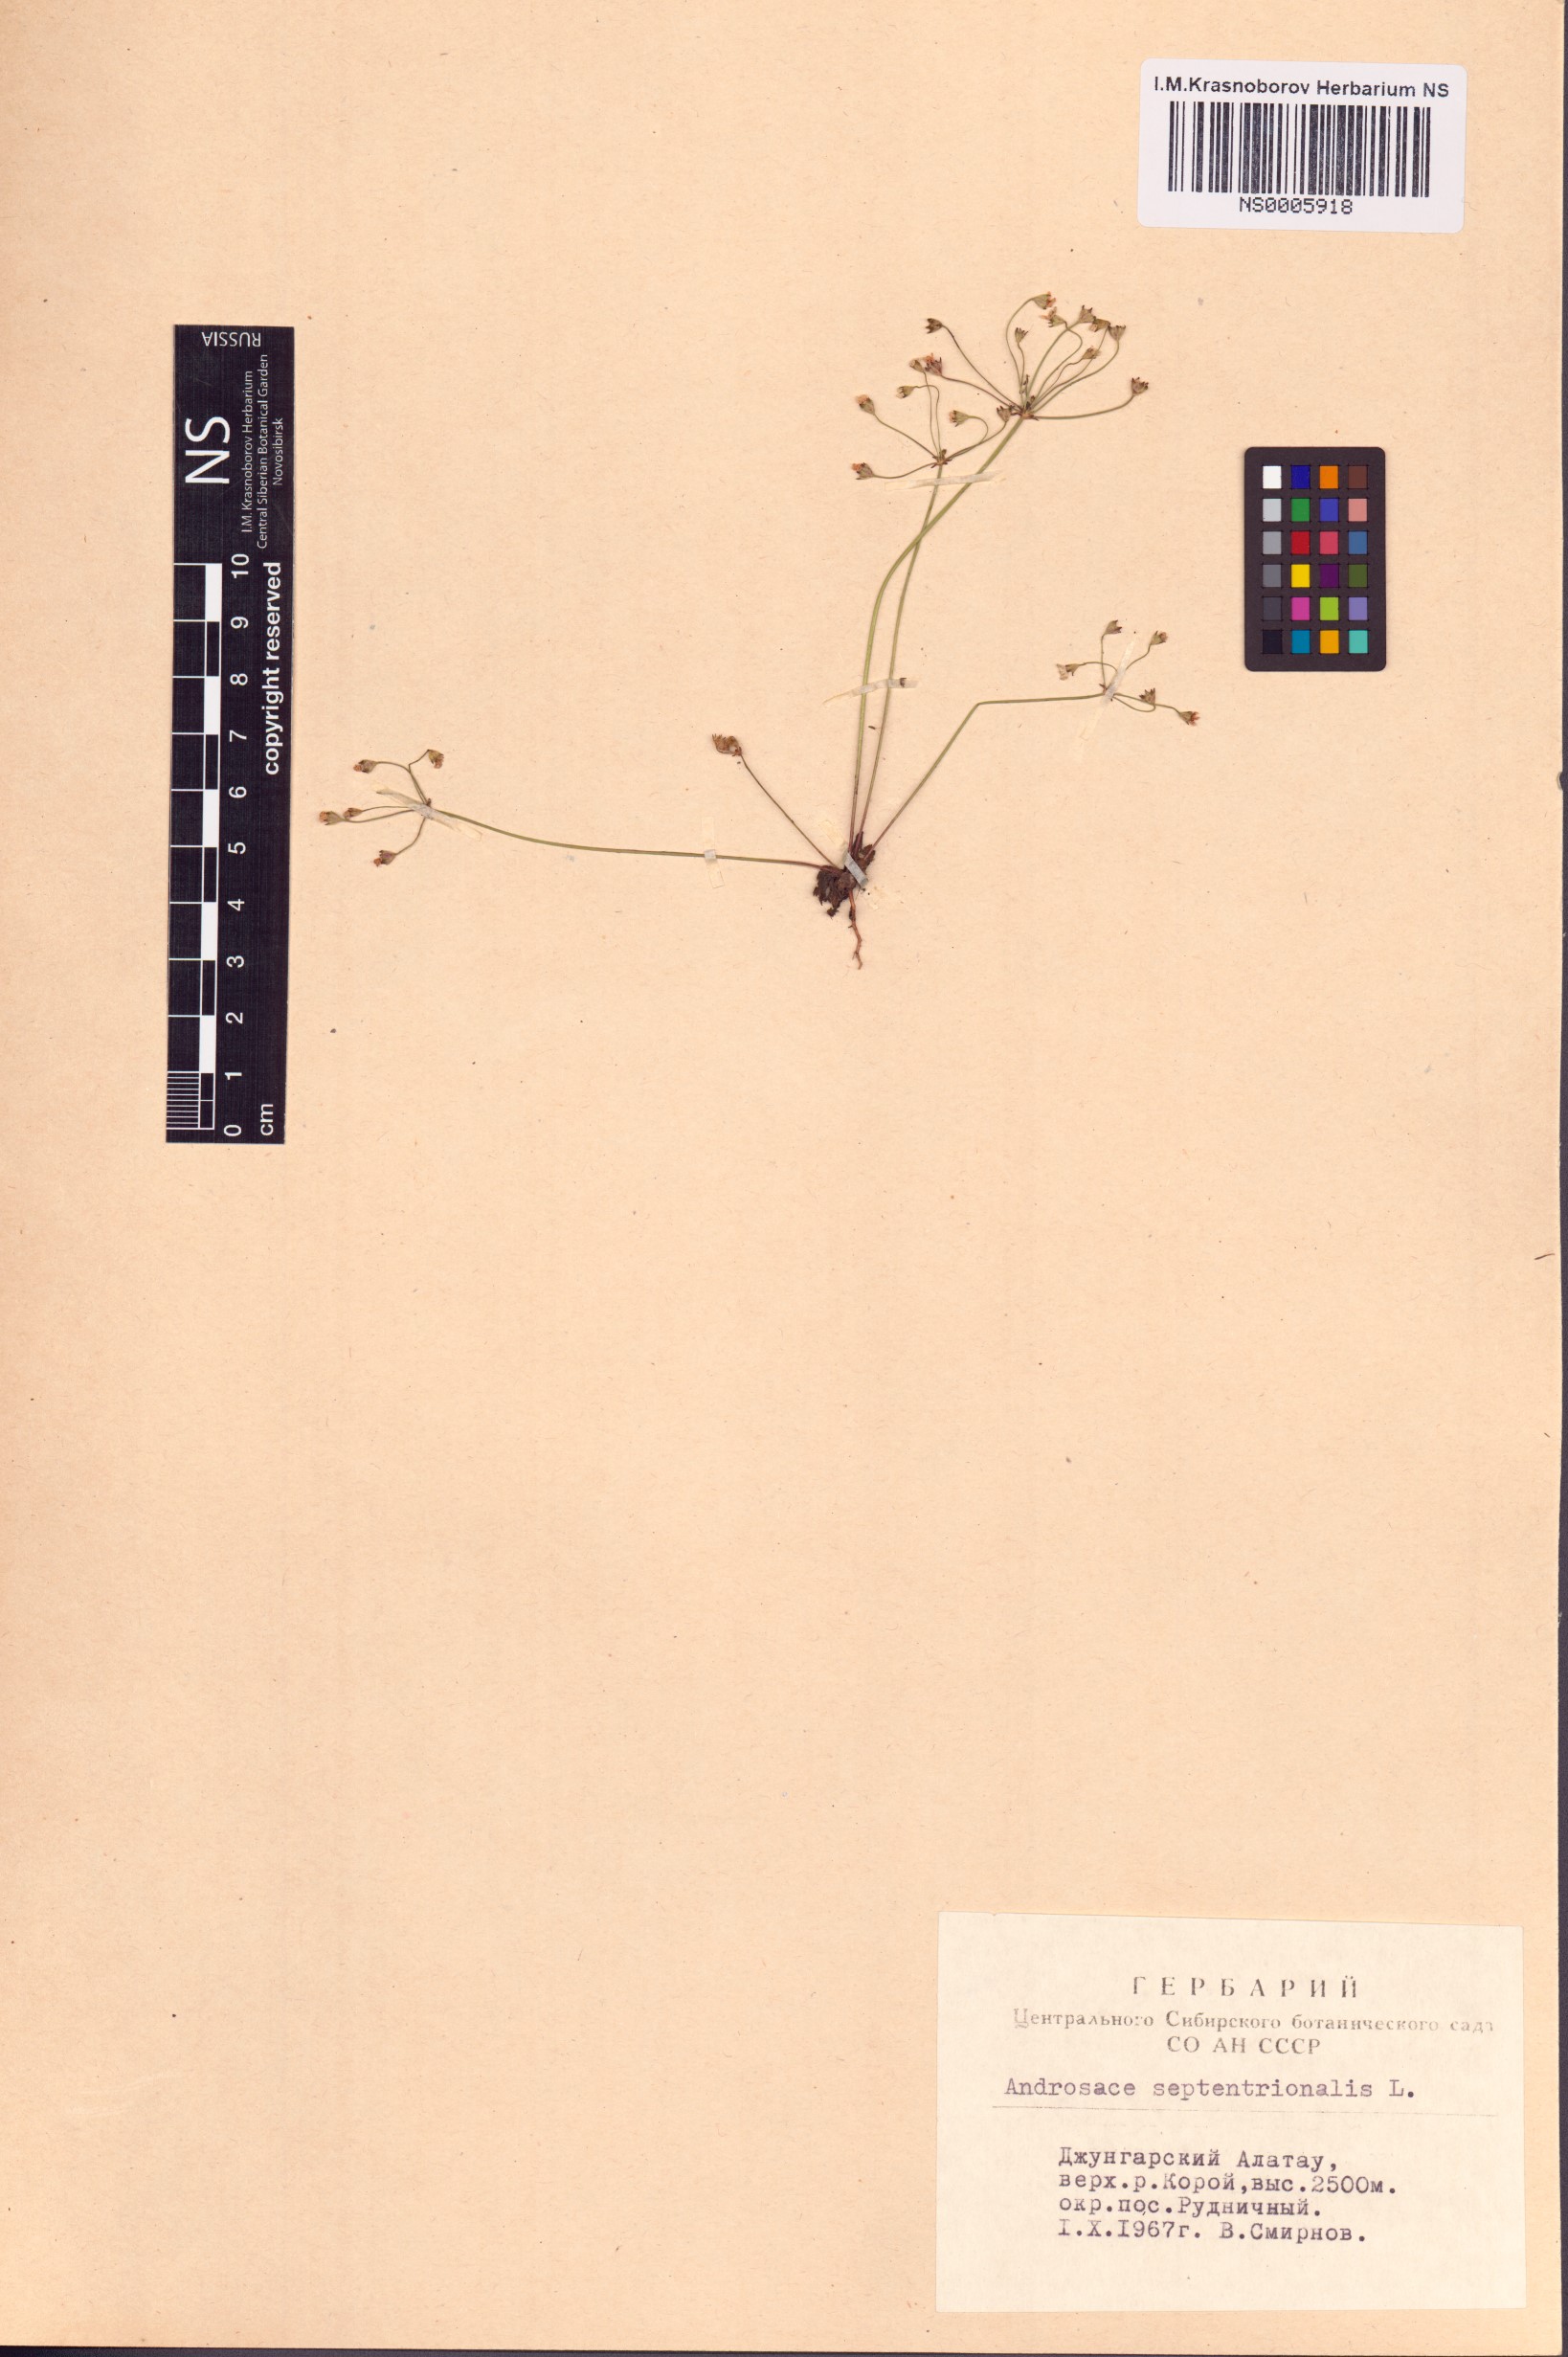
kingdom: Plantae
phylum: Tracheophyta
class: Magnoliopsida
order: Ericales
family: Primulaceae
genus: Androsace
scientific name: Androsace septentrionalis
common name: Hairy northern fairy-candelabra
